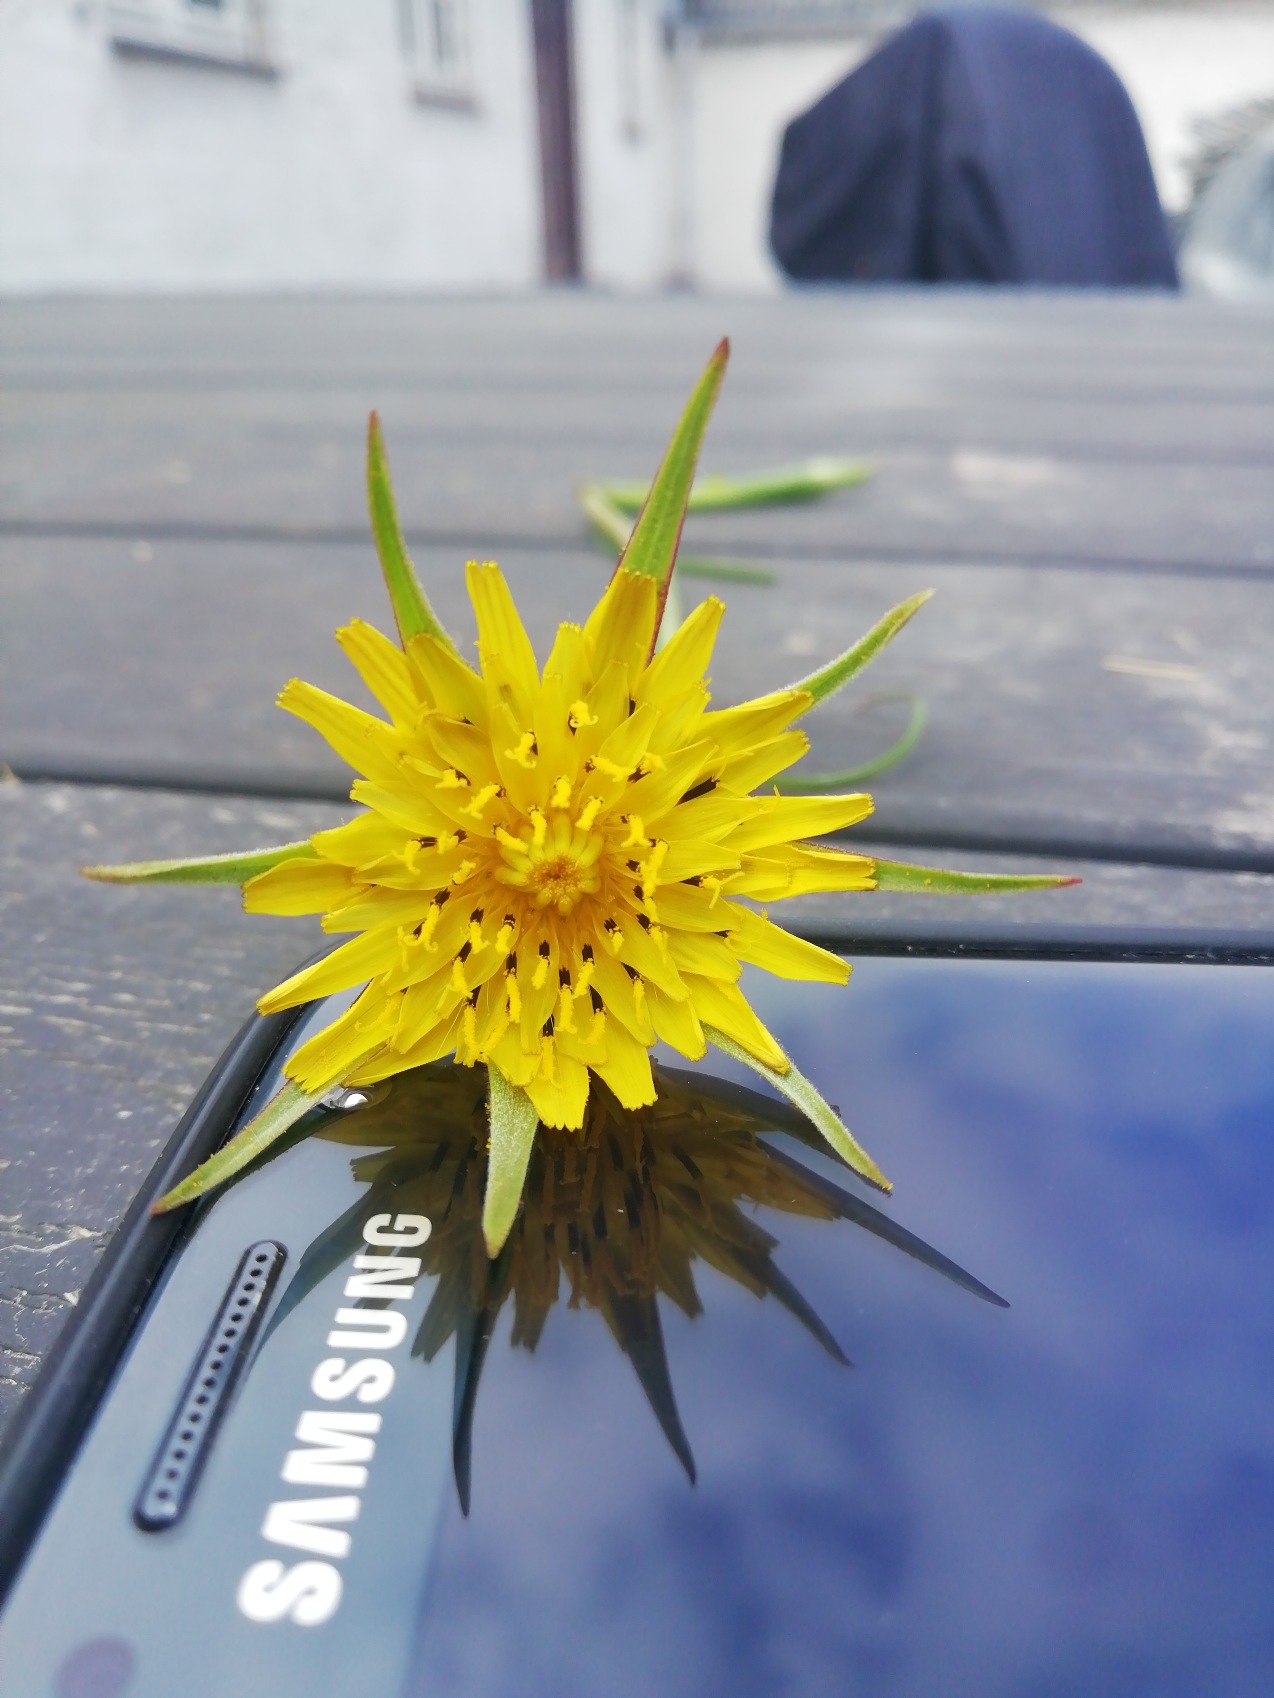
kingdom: Plantae
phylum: Tracheophyta
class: Magnoliopsida
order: Asterales
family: Asteraceae
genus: Tragopogon
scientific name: Tragopogon minor
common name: Småkronet gedeskæg
